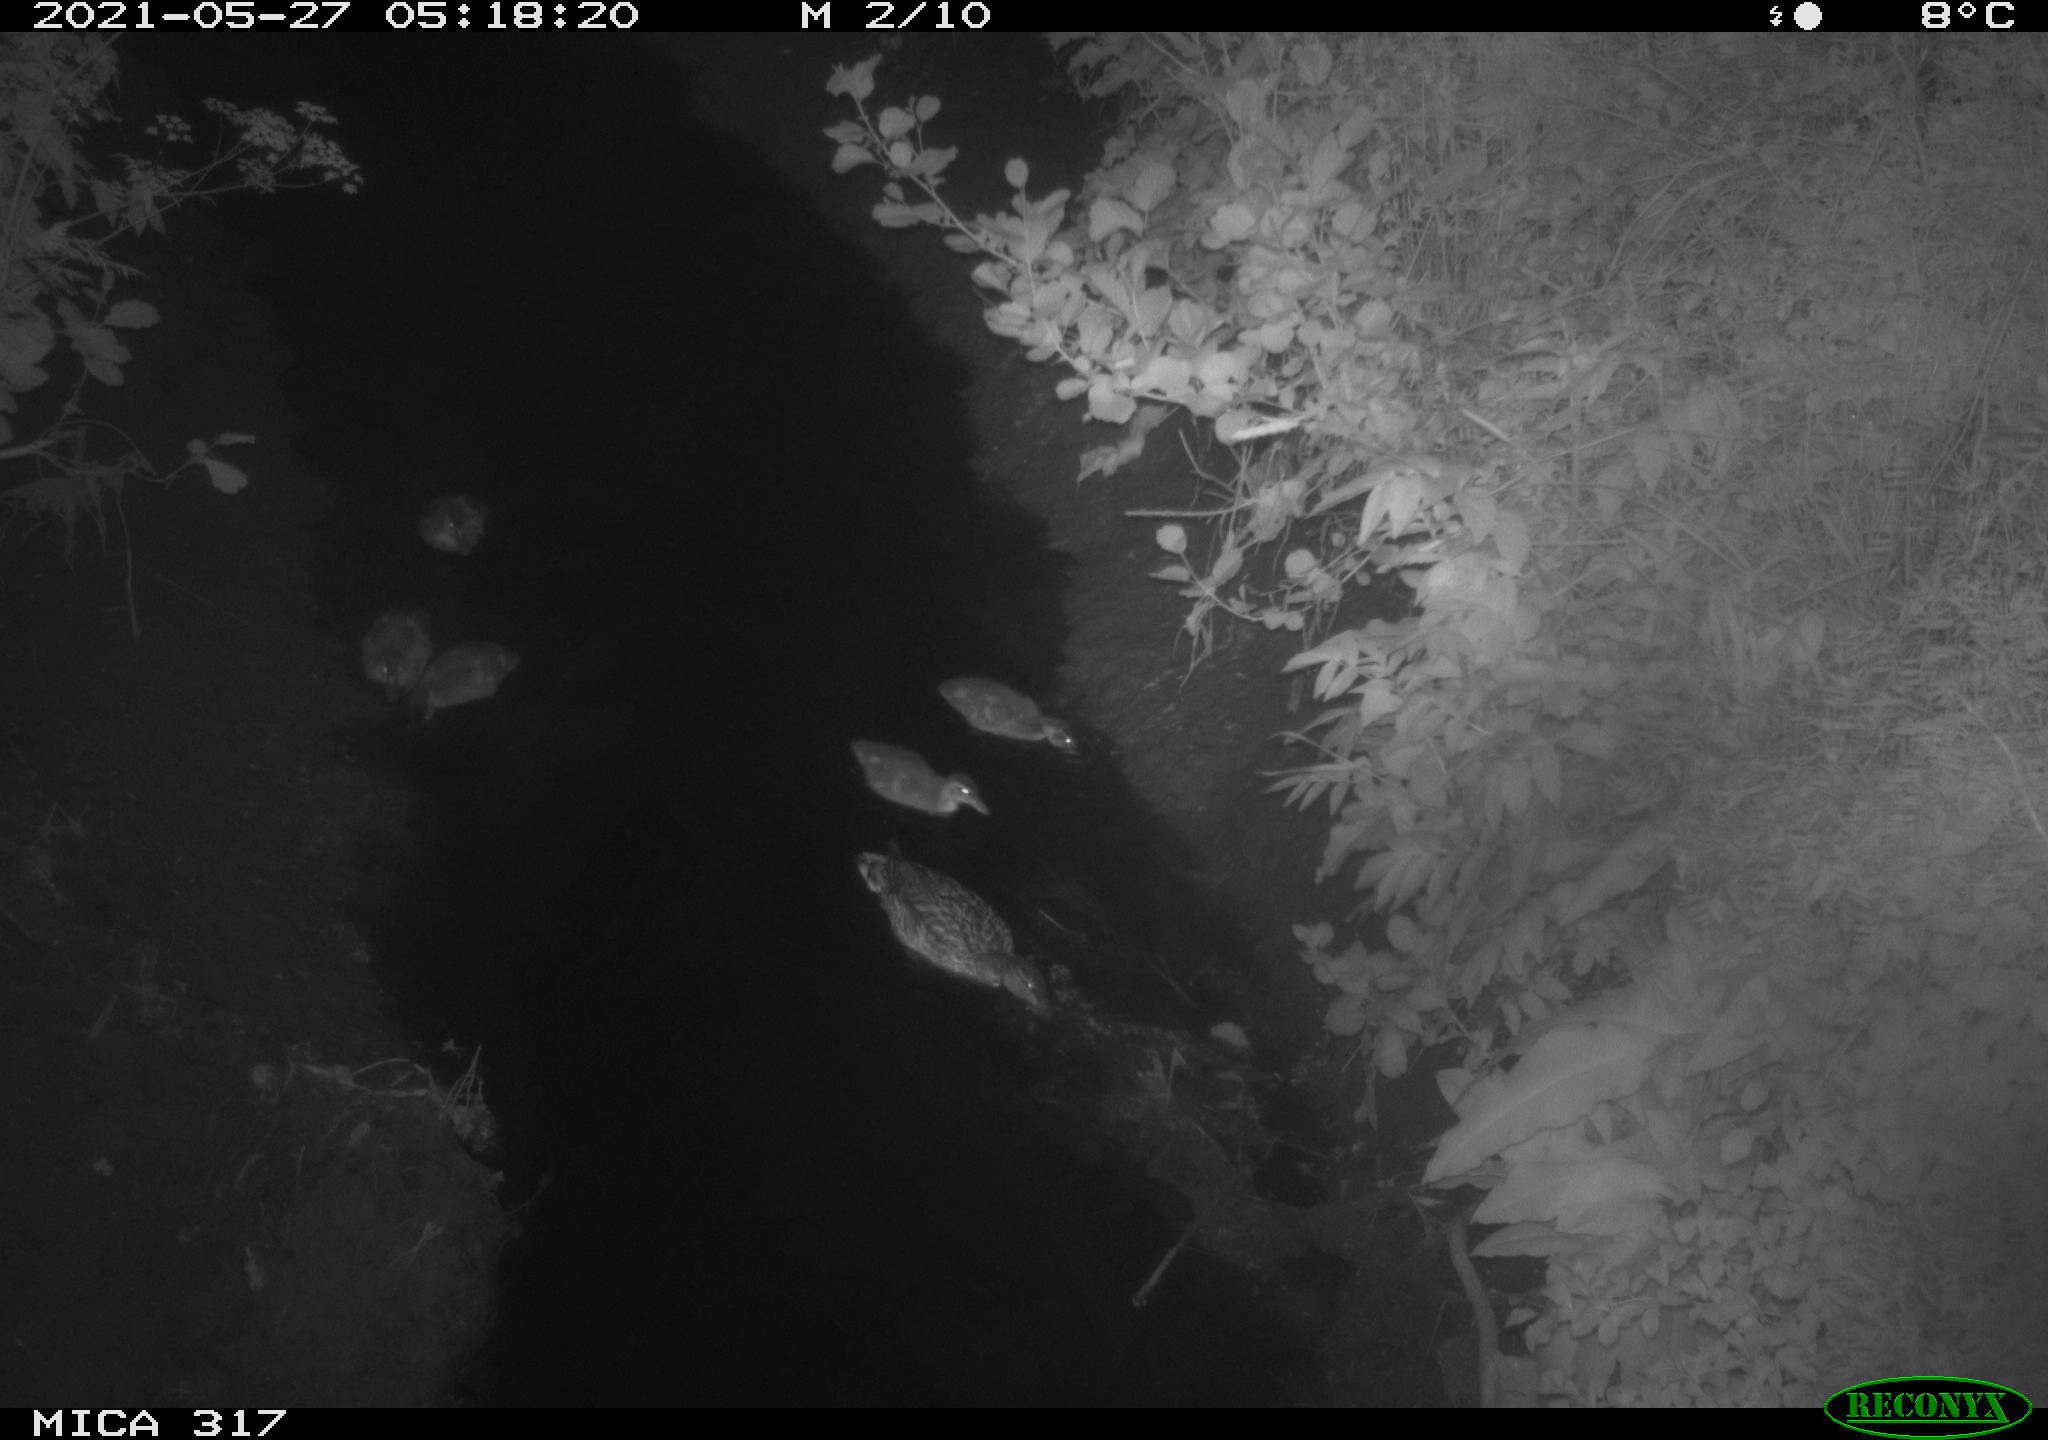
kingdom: Animalia
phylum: Chordata
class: Aves
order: Anseriformes
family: Anatidae
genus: Anas
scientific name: Anas
